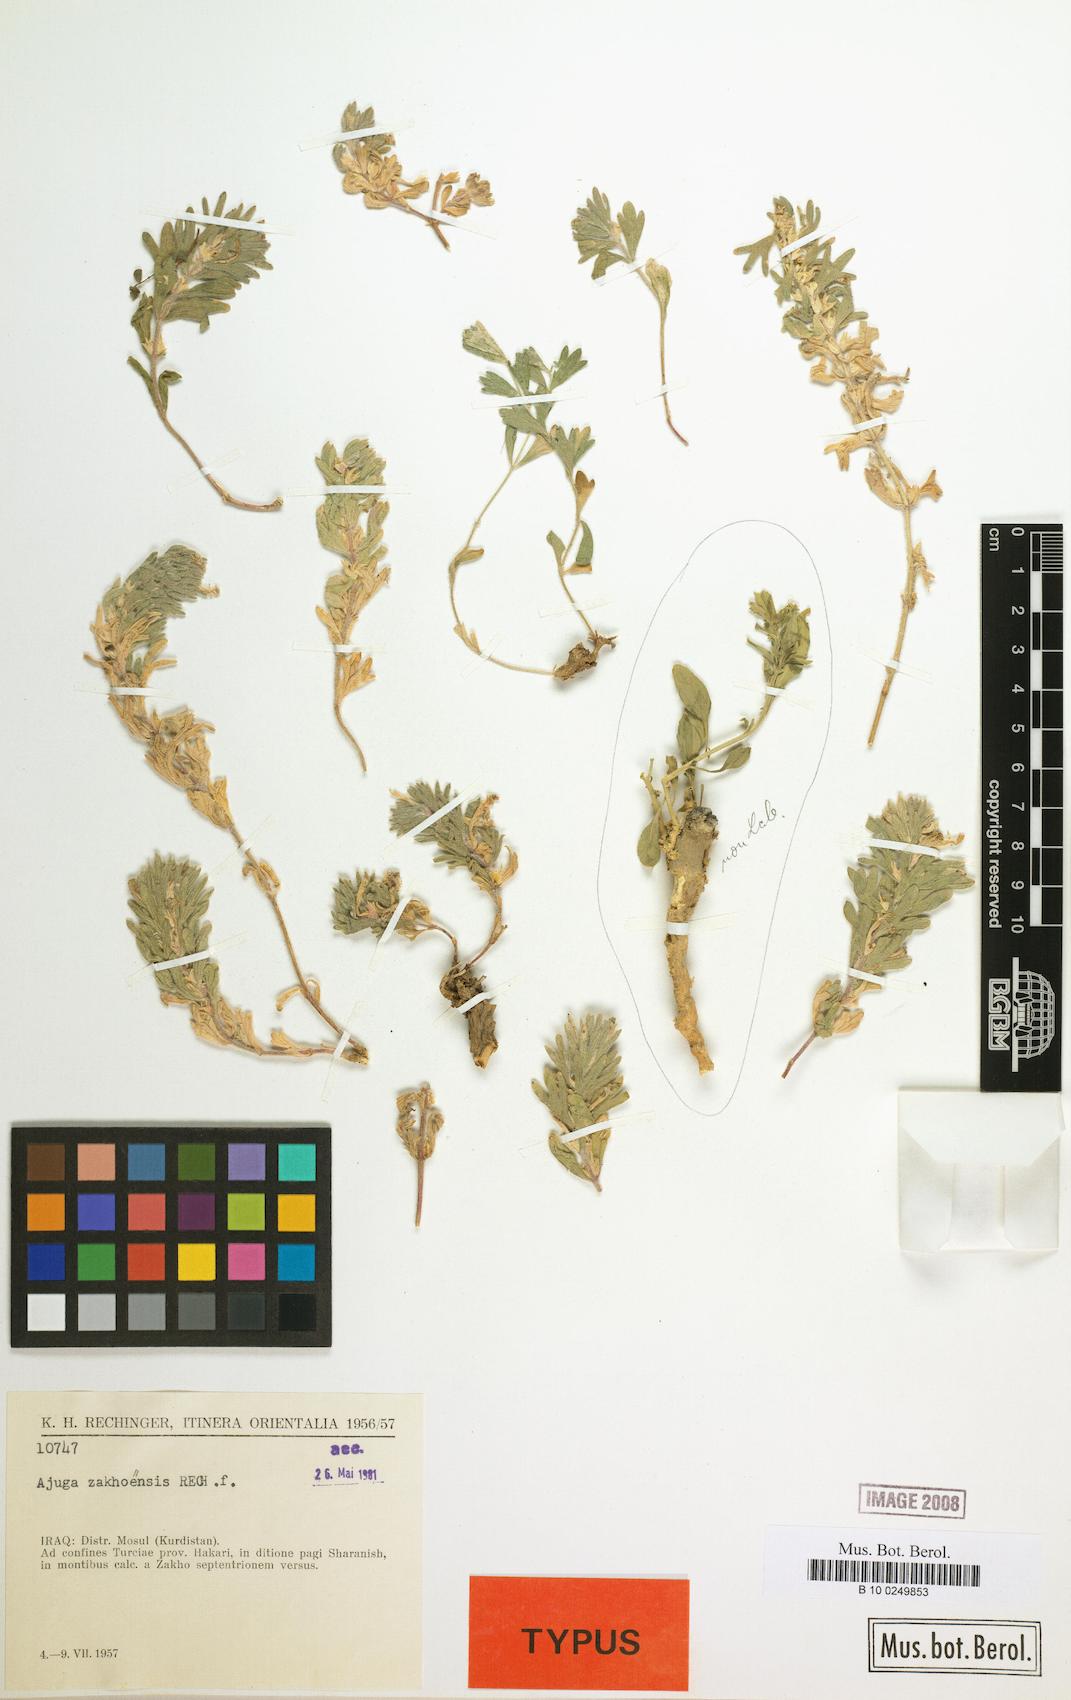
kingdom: Plantae
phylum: Tracheophyta
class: Magnoliopsida
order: Lamiales
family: Lamiaceae
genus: Ajuga
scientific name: Ajuga zakhoensis
